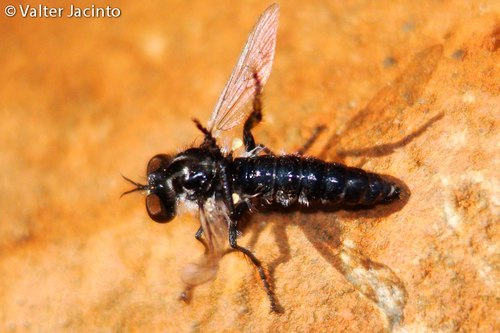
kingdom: Animalia
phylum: Arthropoda
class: Insecta
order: Diptera
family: Asilidae
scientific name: Asilidae
